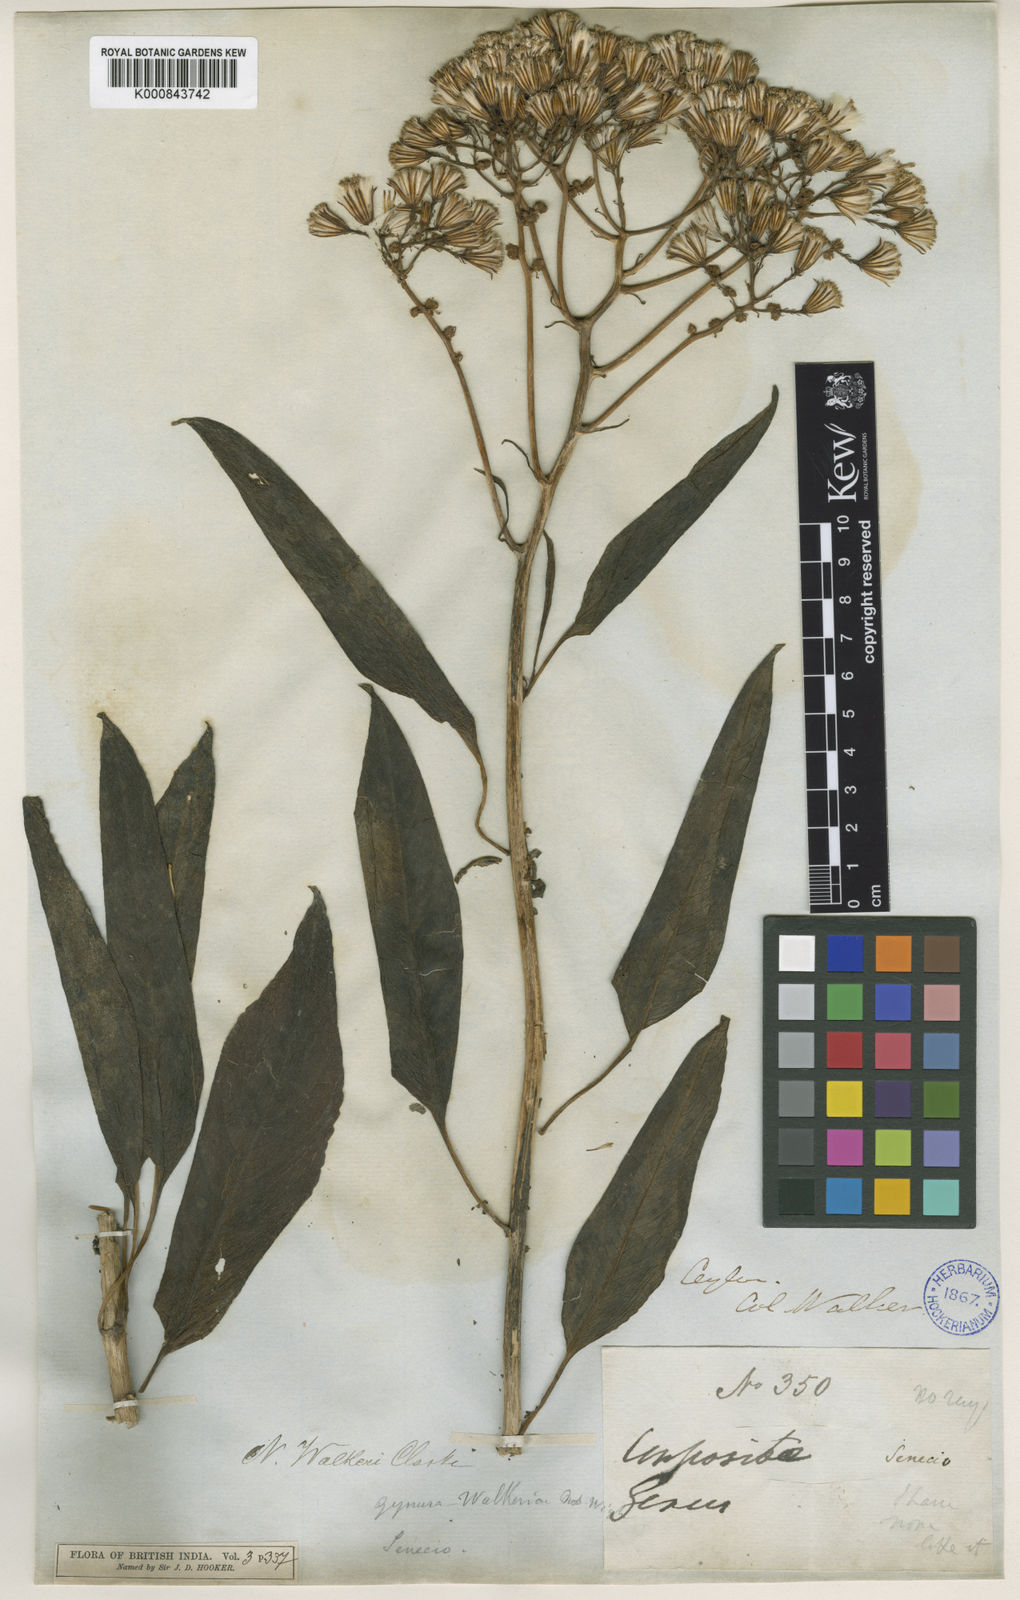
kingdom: Plantae
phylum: Tracheophyta
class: Magnoliopsida
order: Asterales
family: Asteraceae
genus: Kleinia
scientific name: Kleinia
